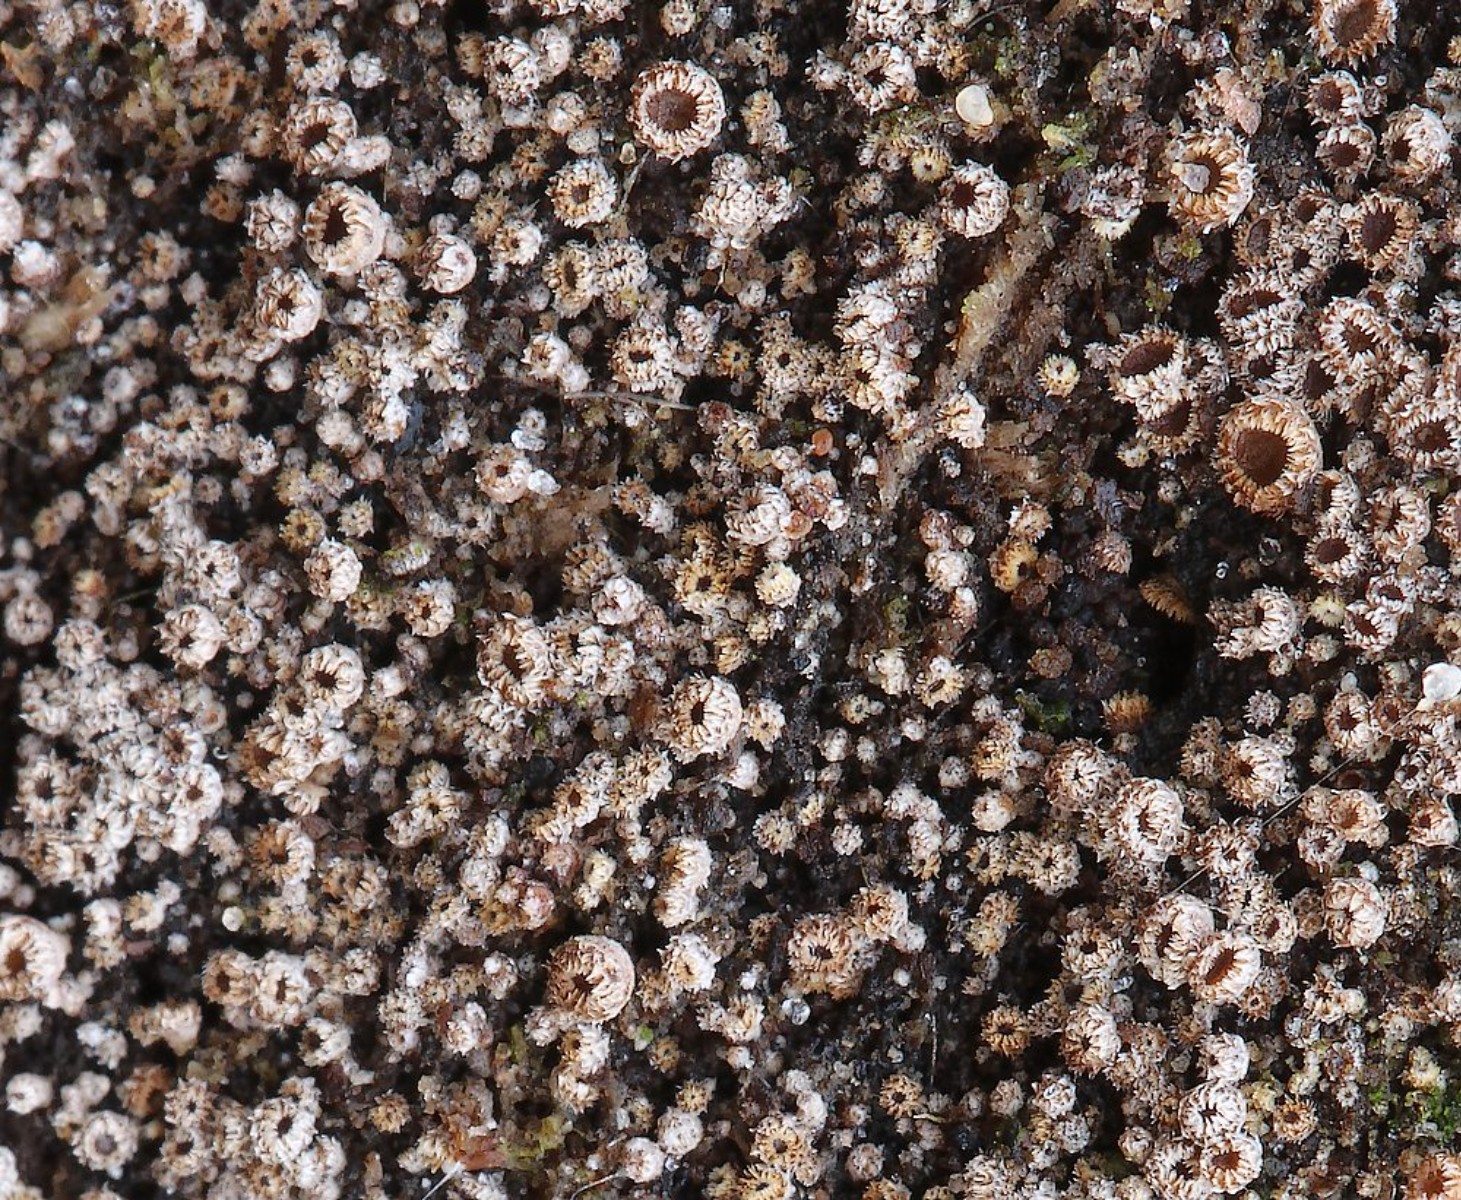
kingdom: Fungi
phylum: Ascomycota
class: Leotiomycetes
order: Helotiales
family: Solenopeziaceae
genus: Lasiobelonium
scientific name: Lasiobelonium
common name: frynseskive
